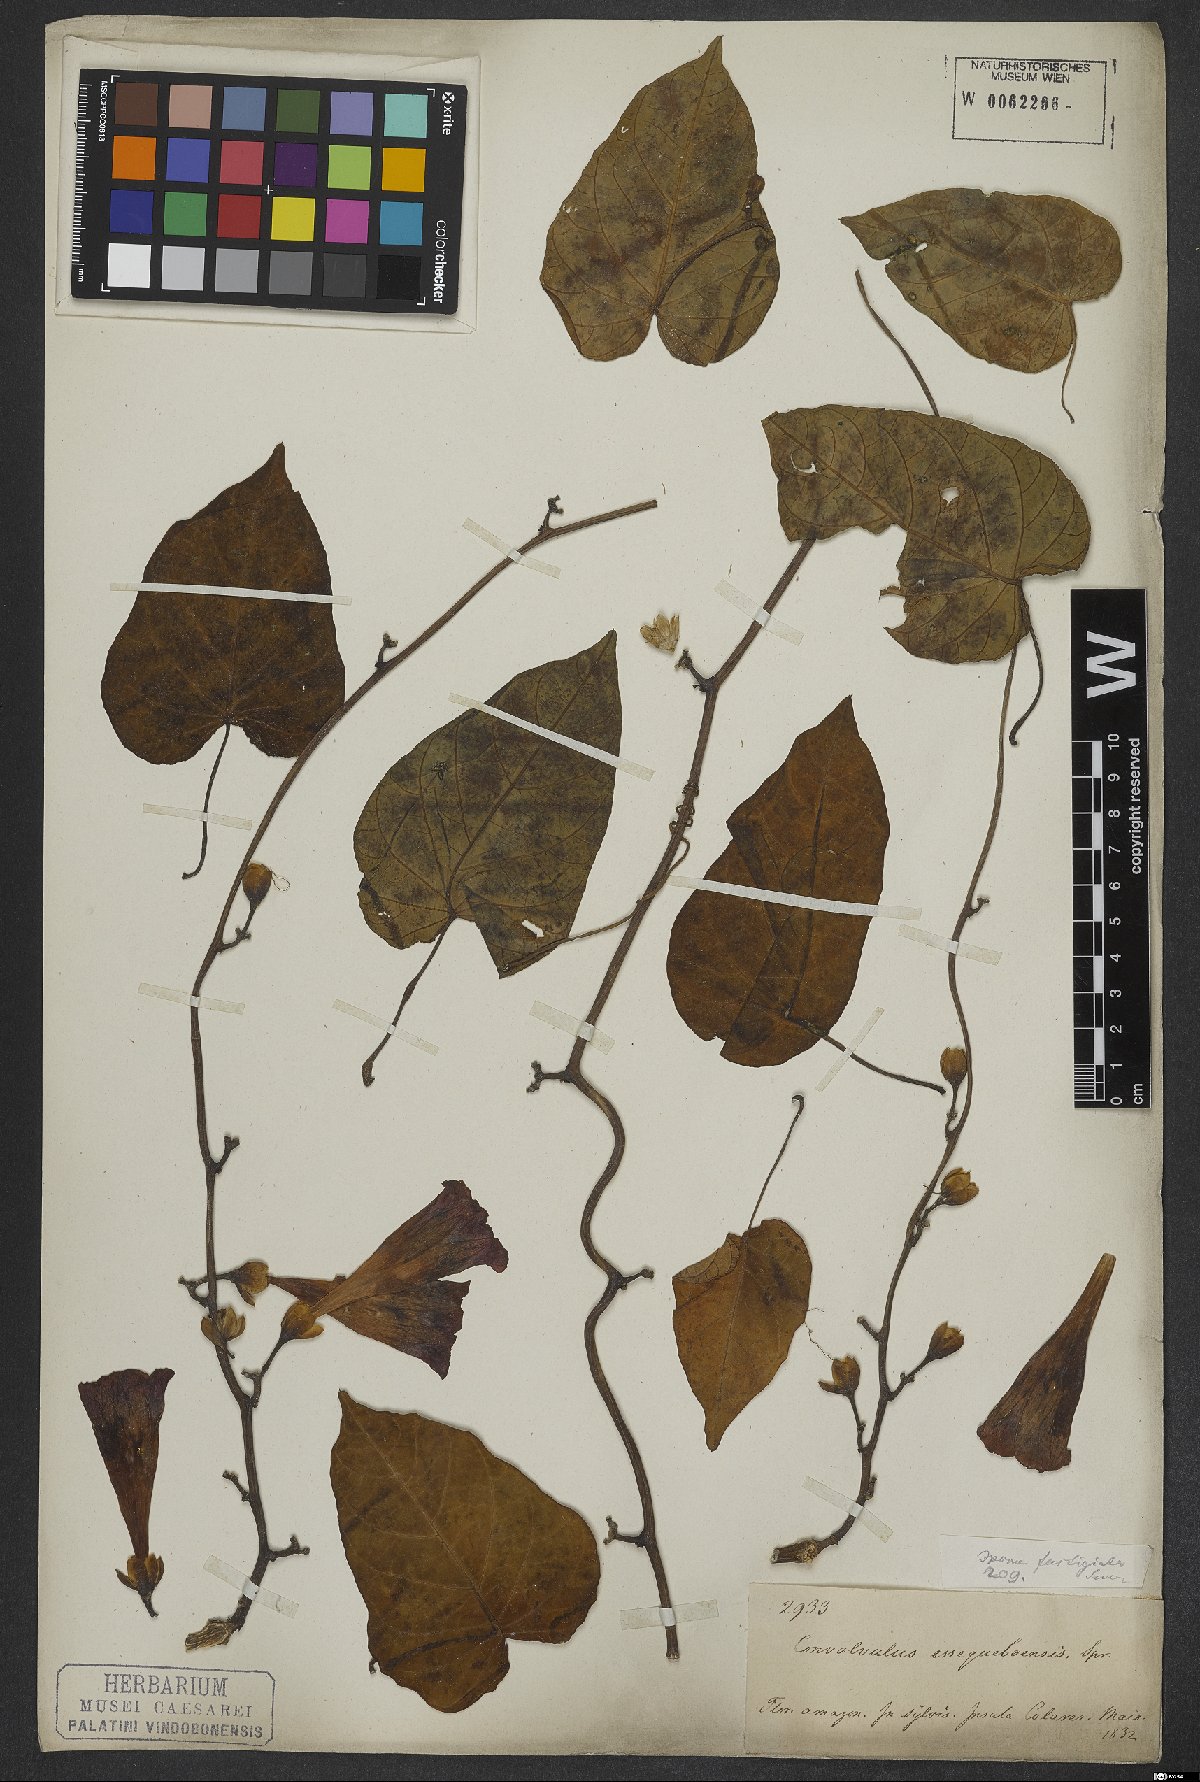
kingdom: Plantae
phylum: Tracheophyta
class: Magnoliopsida
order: Solanales
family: Convolvulaceae
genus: Ipomoea
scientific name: Ipomoea batatas
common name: Sweet-potato
